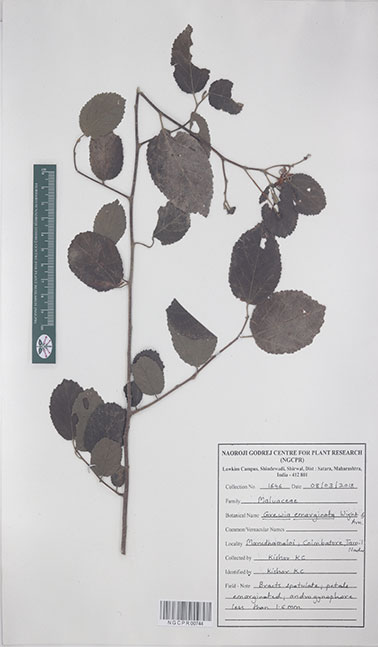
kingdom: Plantae
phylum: Tracheophyta
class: Magnoliopsida
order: Malvales
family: Malvaceae
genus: Grewia
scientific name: Grewia oppositifolia
